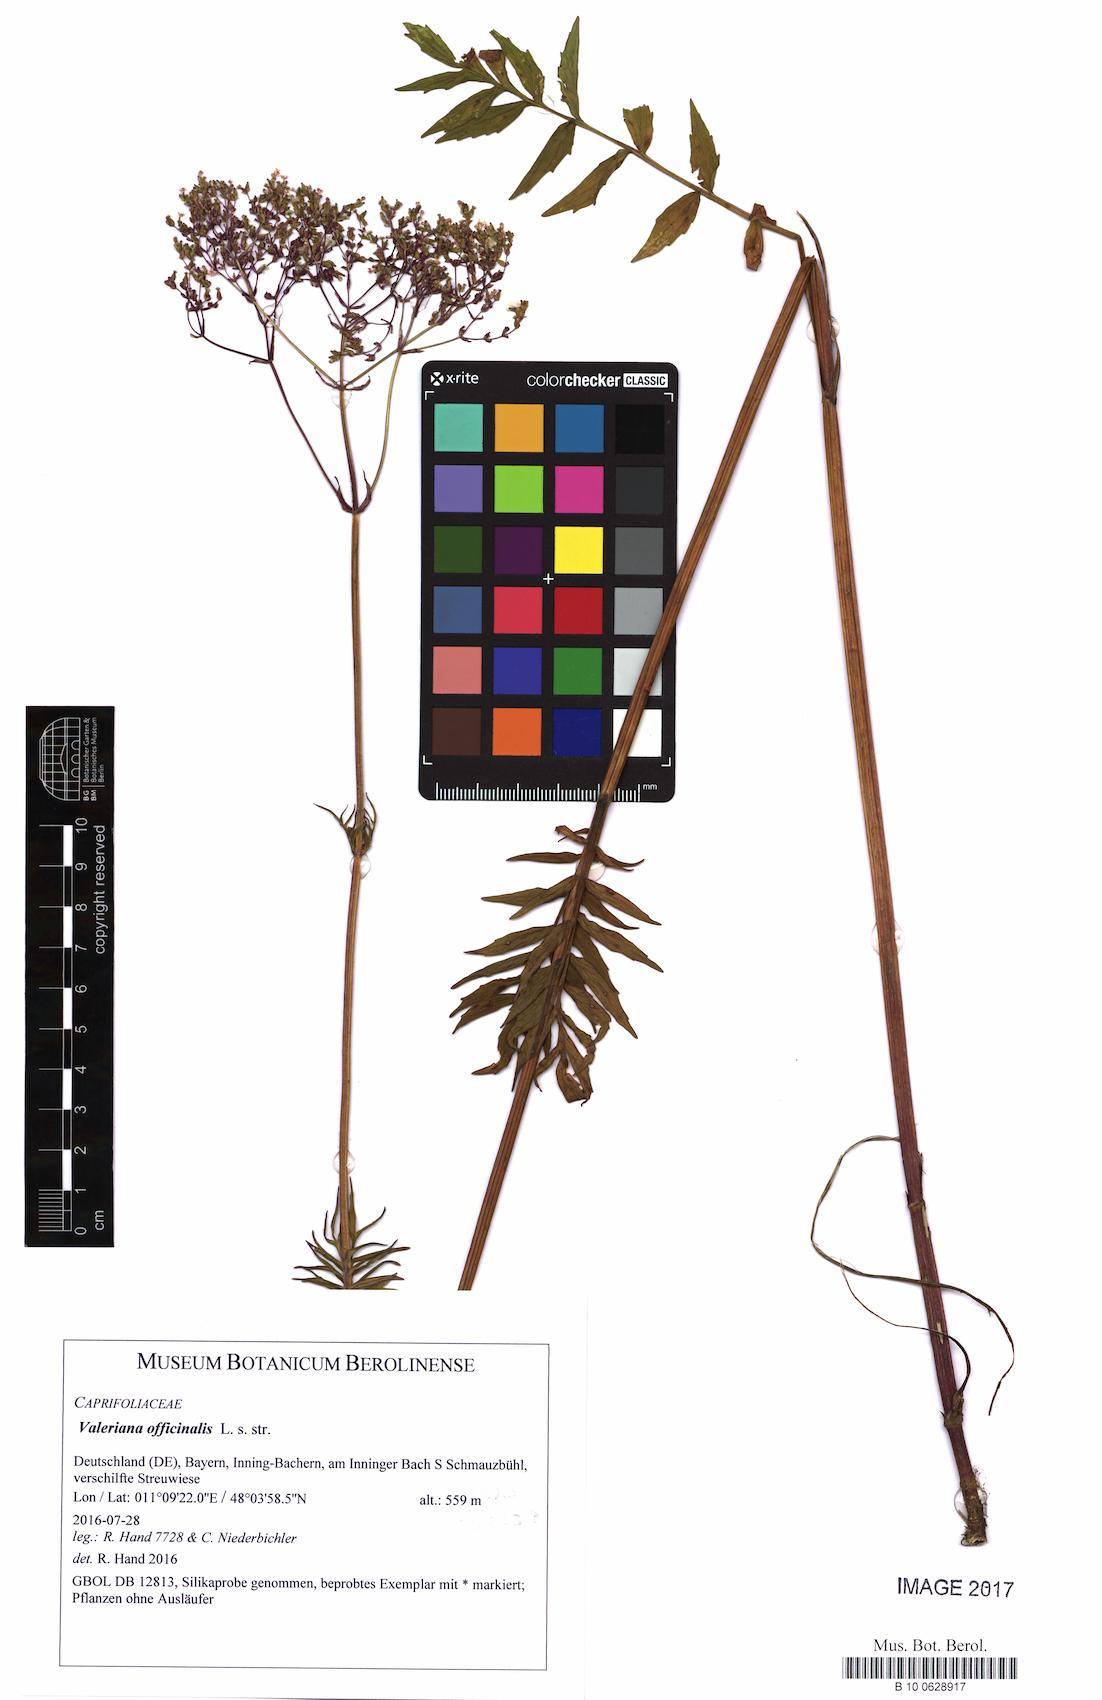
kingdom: Plantae
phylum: Tracheophyta
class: Magnoliopsida
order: Dipsacales
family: Caprifoliaceae
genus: Valeriana
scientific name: Valeriana officinalis
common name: Common valerian
